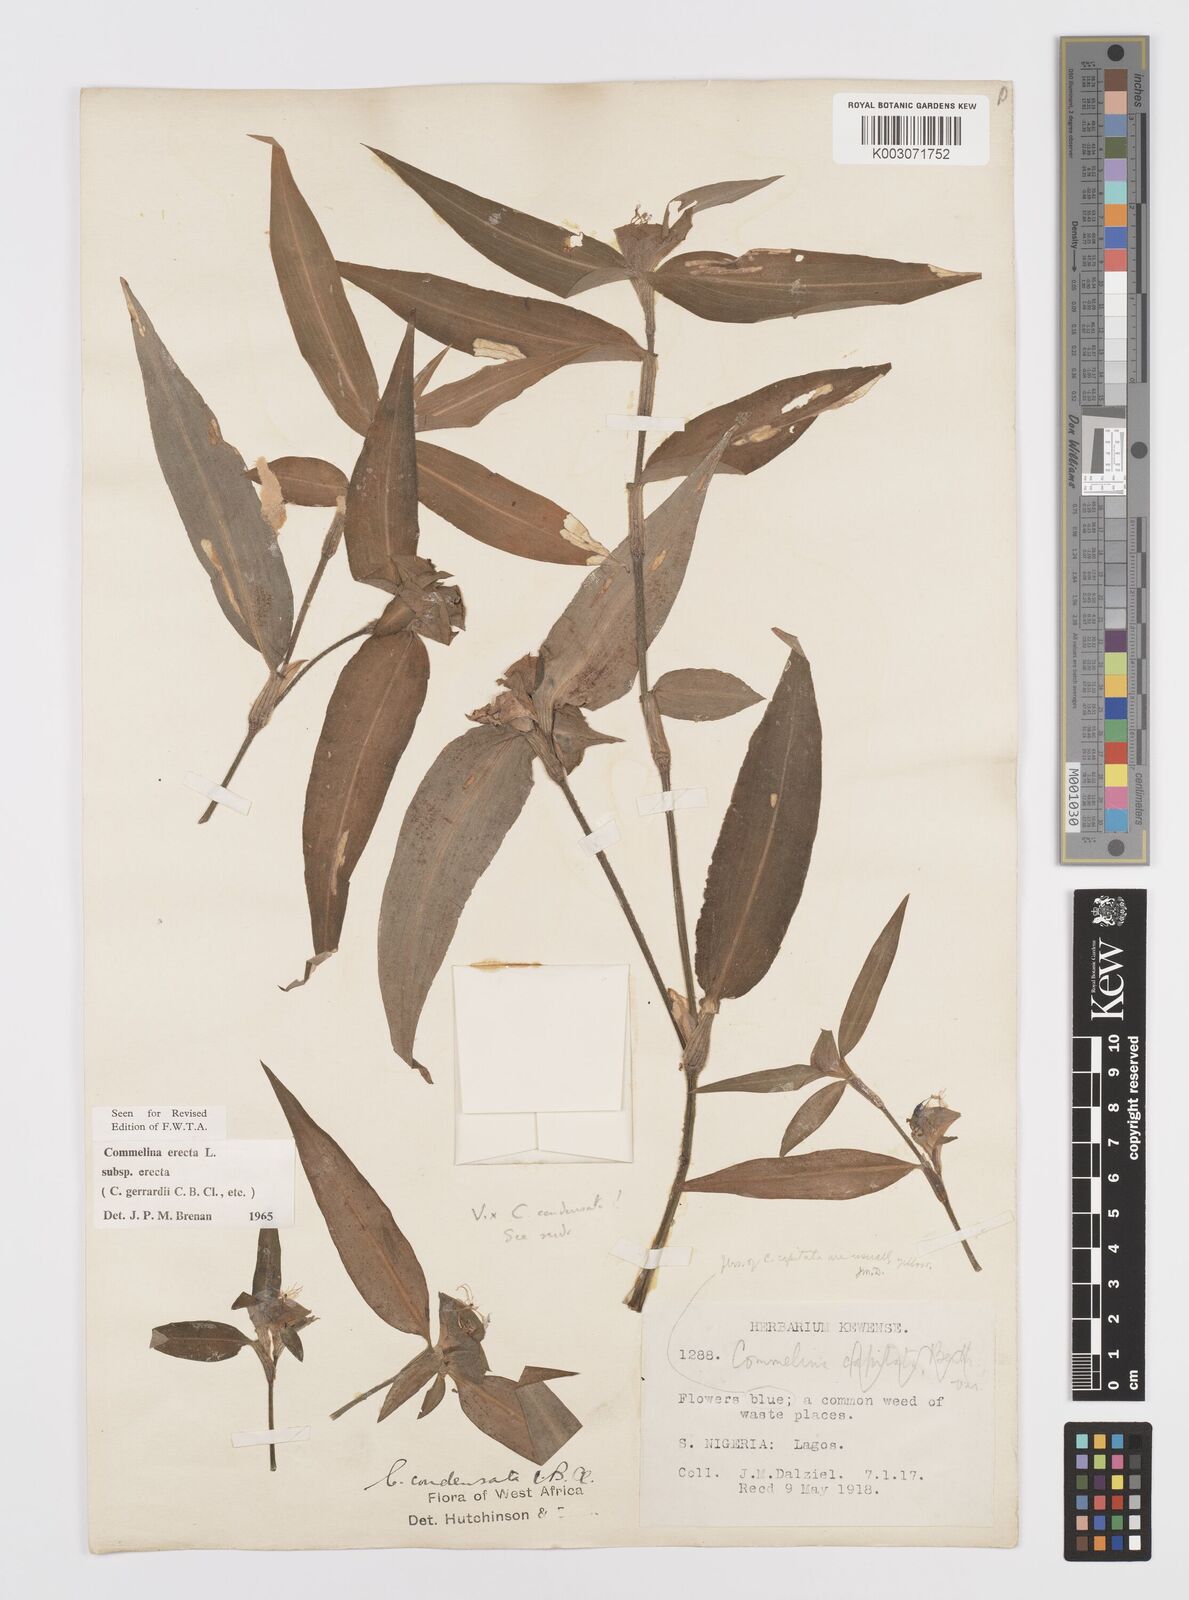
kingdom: Plantae
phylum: Tracheophyta
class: Liliopsida
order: Commelinales
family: Commelinaceae
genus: Commelina
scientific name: Commelina erecta
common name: Blousel blommetjie
